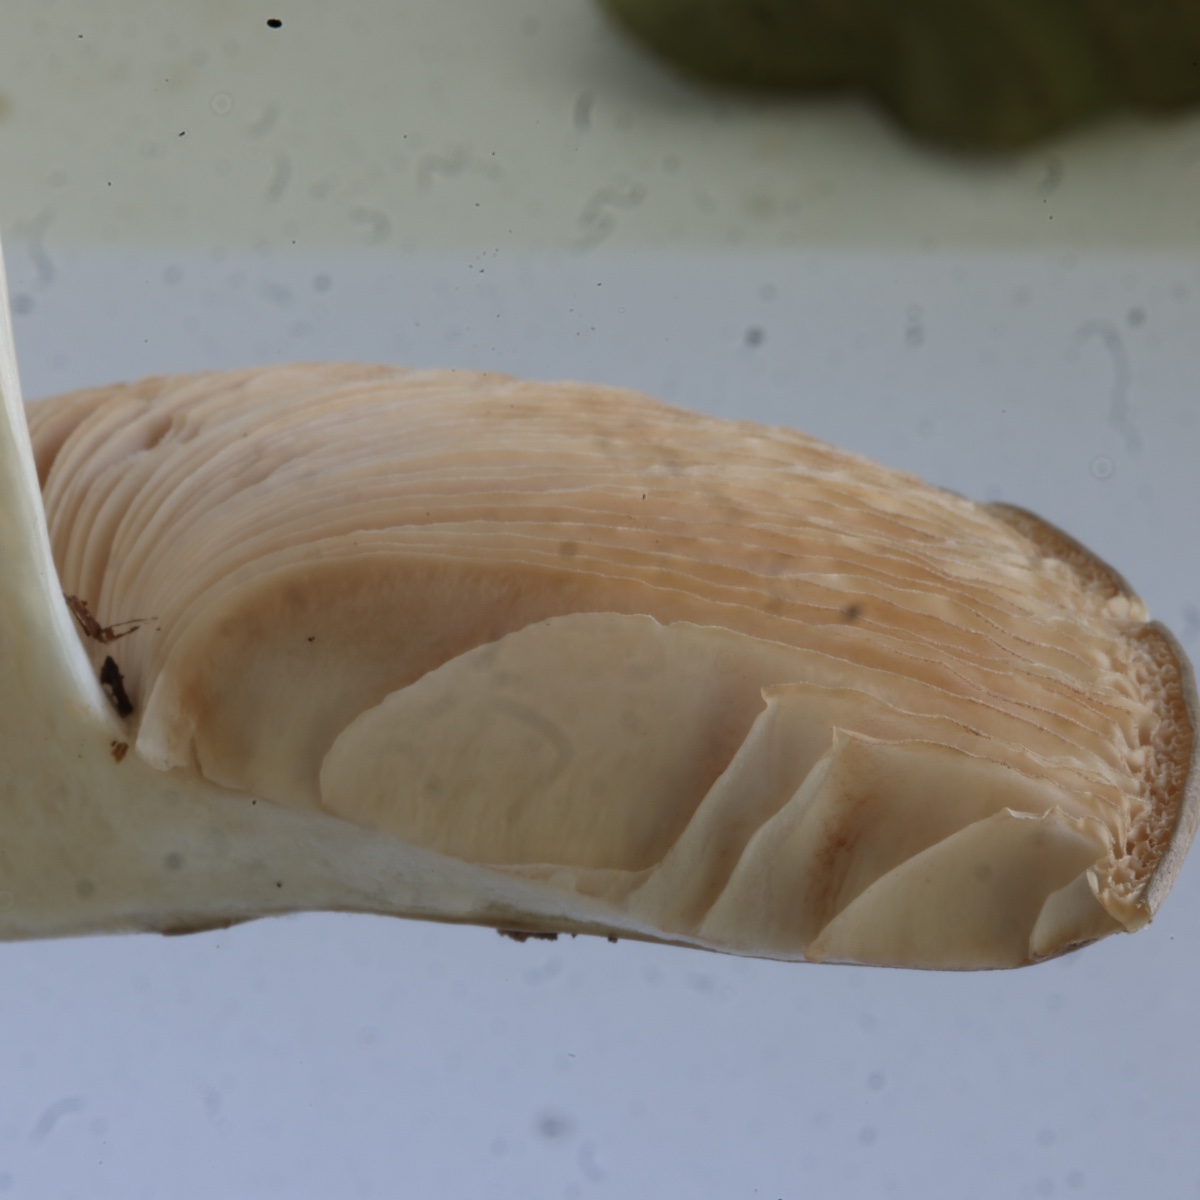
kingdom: Fungi
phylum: Basidiomycota
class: Agaricomycetes
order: Agaricales
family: Pluteaceae
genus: Pluteus
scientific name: Pluteus
